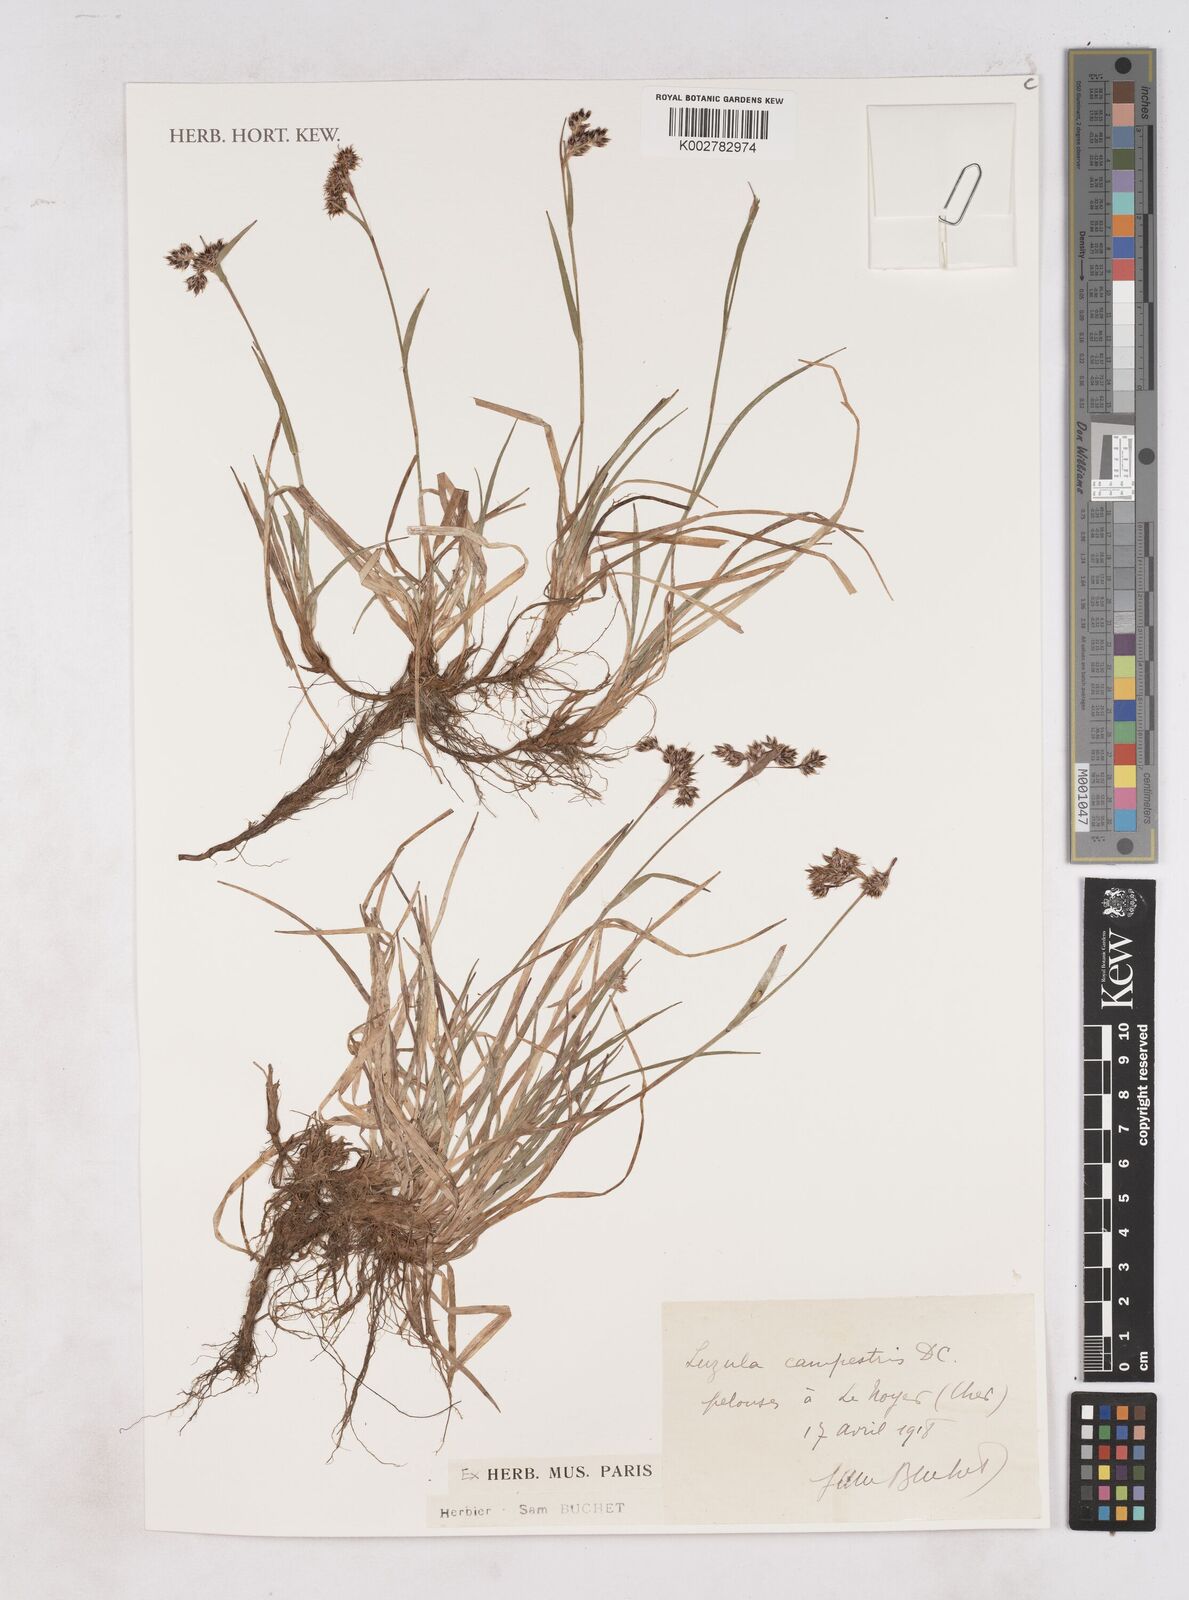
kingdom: Plantae
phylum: Tracheophyta
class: Liliopsida
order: Poales
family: Juncaceae
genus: Luzula
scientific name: Luzula campestris
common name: Field wood-rush
